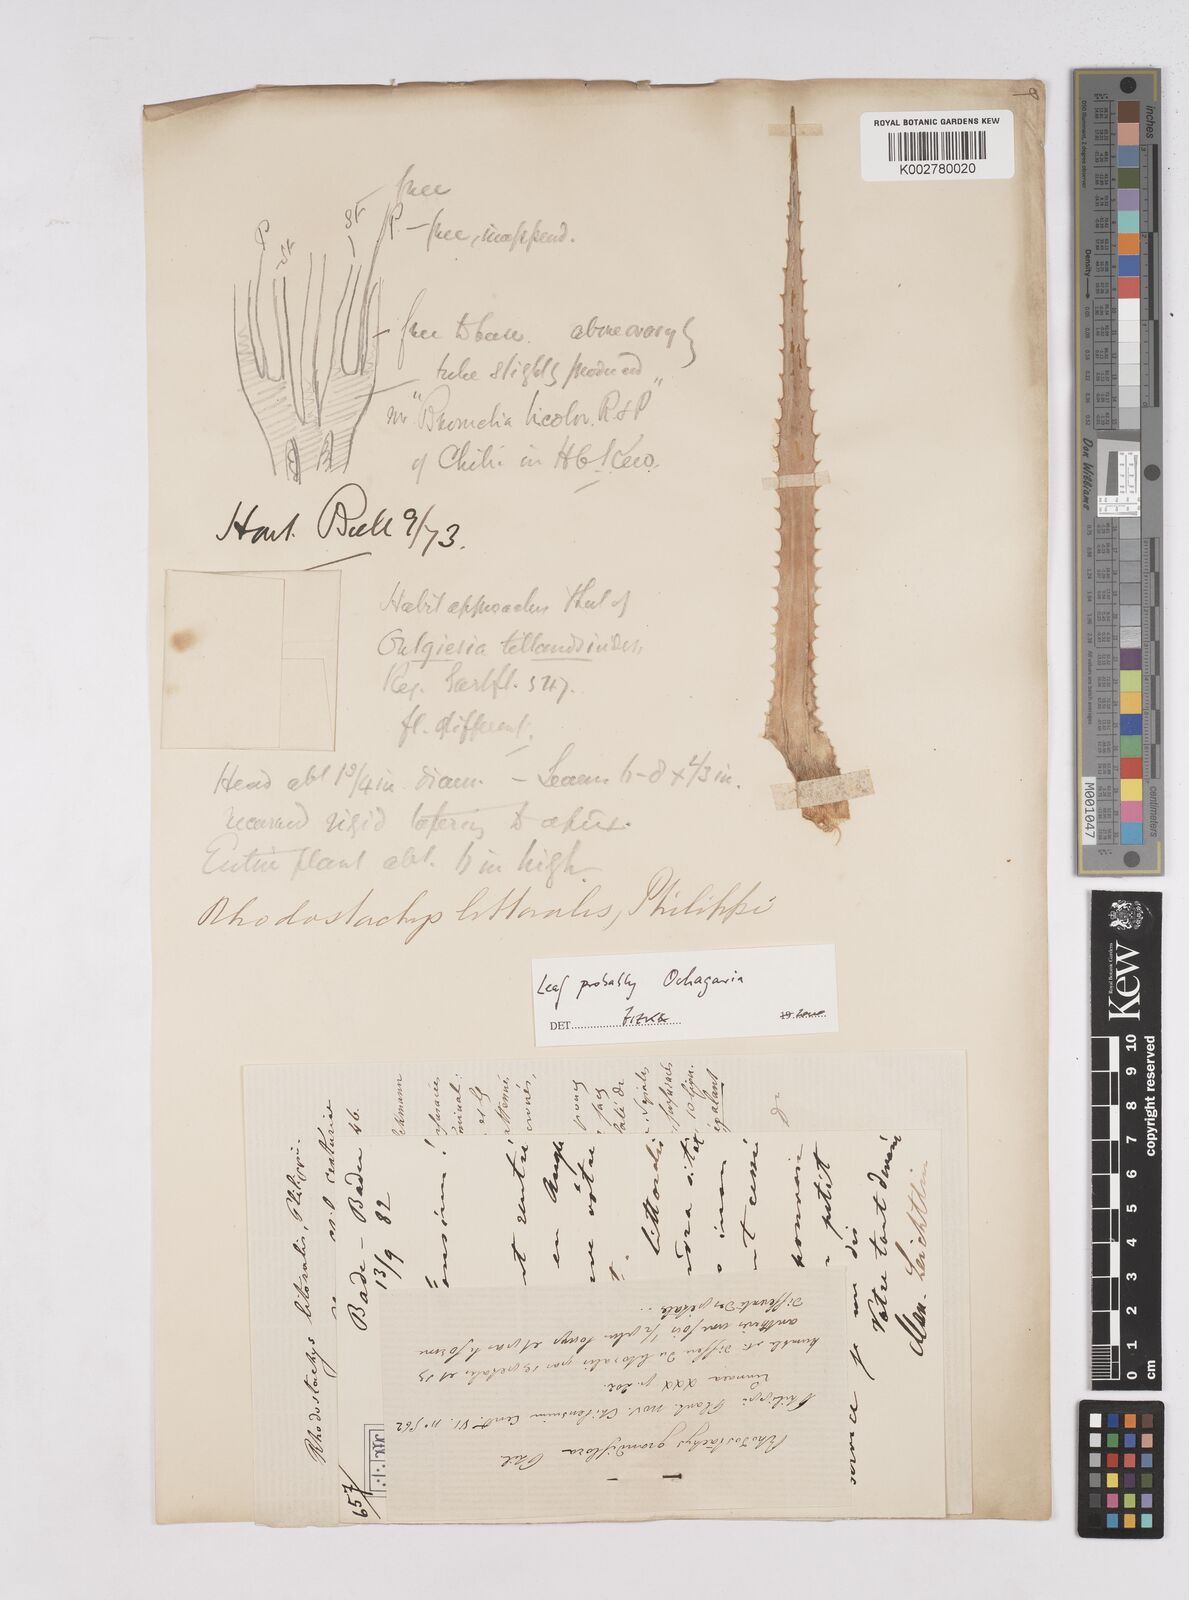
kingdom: Plantae
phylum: Tracheophyta
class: Liliopsida
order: Poales
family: Bromeliaceae
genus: Ochagavia
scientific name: Ochagavia litoralis
